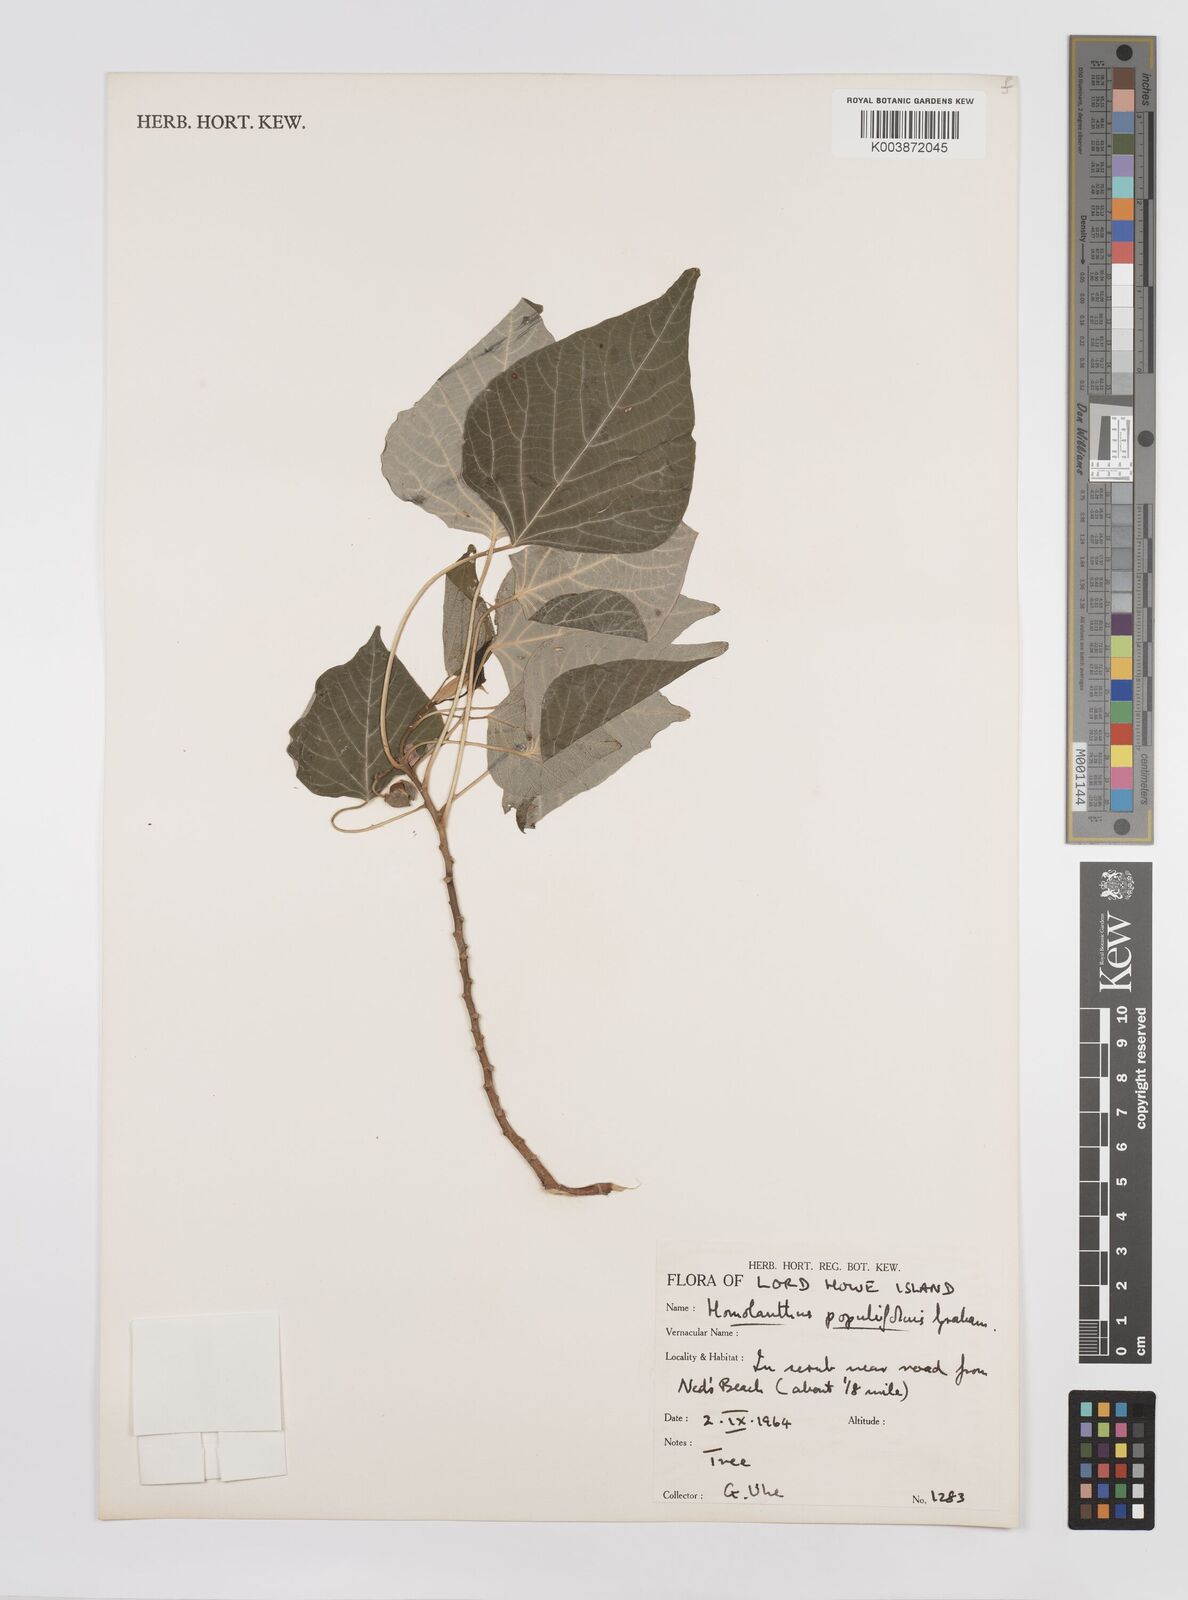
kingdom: Plantae
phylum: Tracheophyta
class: Magnoliopsida
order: Malpighiales
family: Euphorbiaceae
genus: Homalanthus
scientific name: Homalanthus populifolius
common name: Queensland poplar
